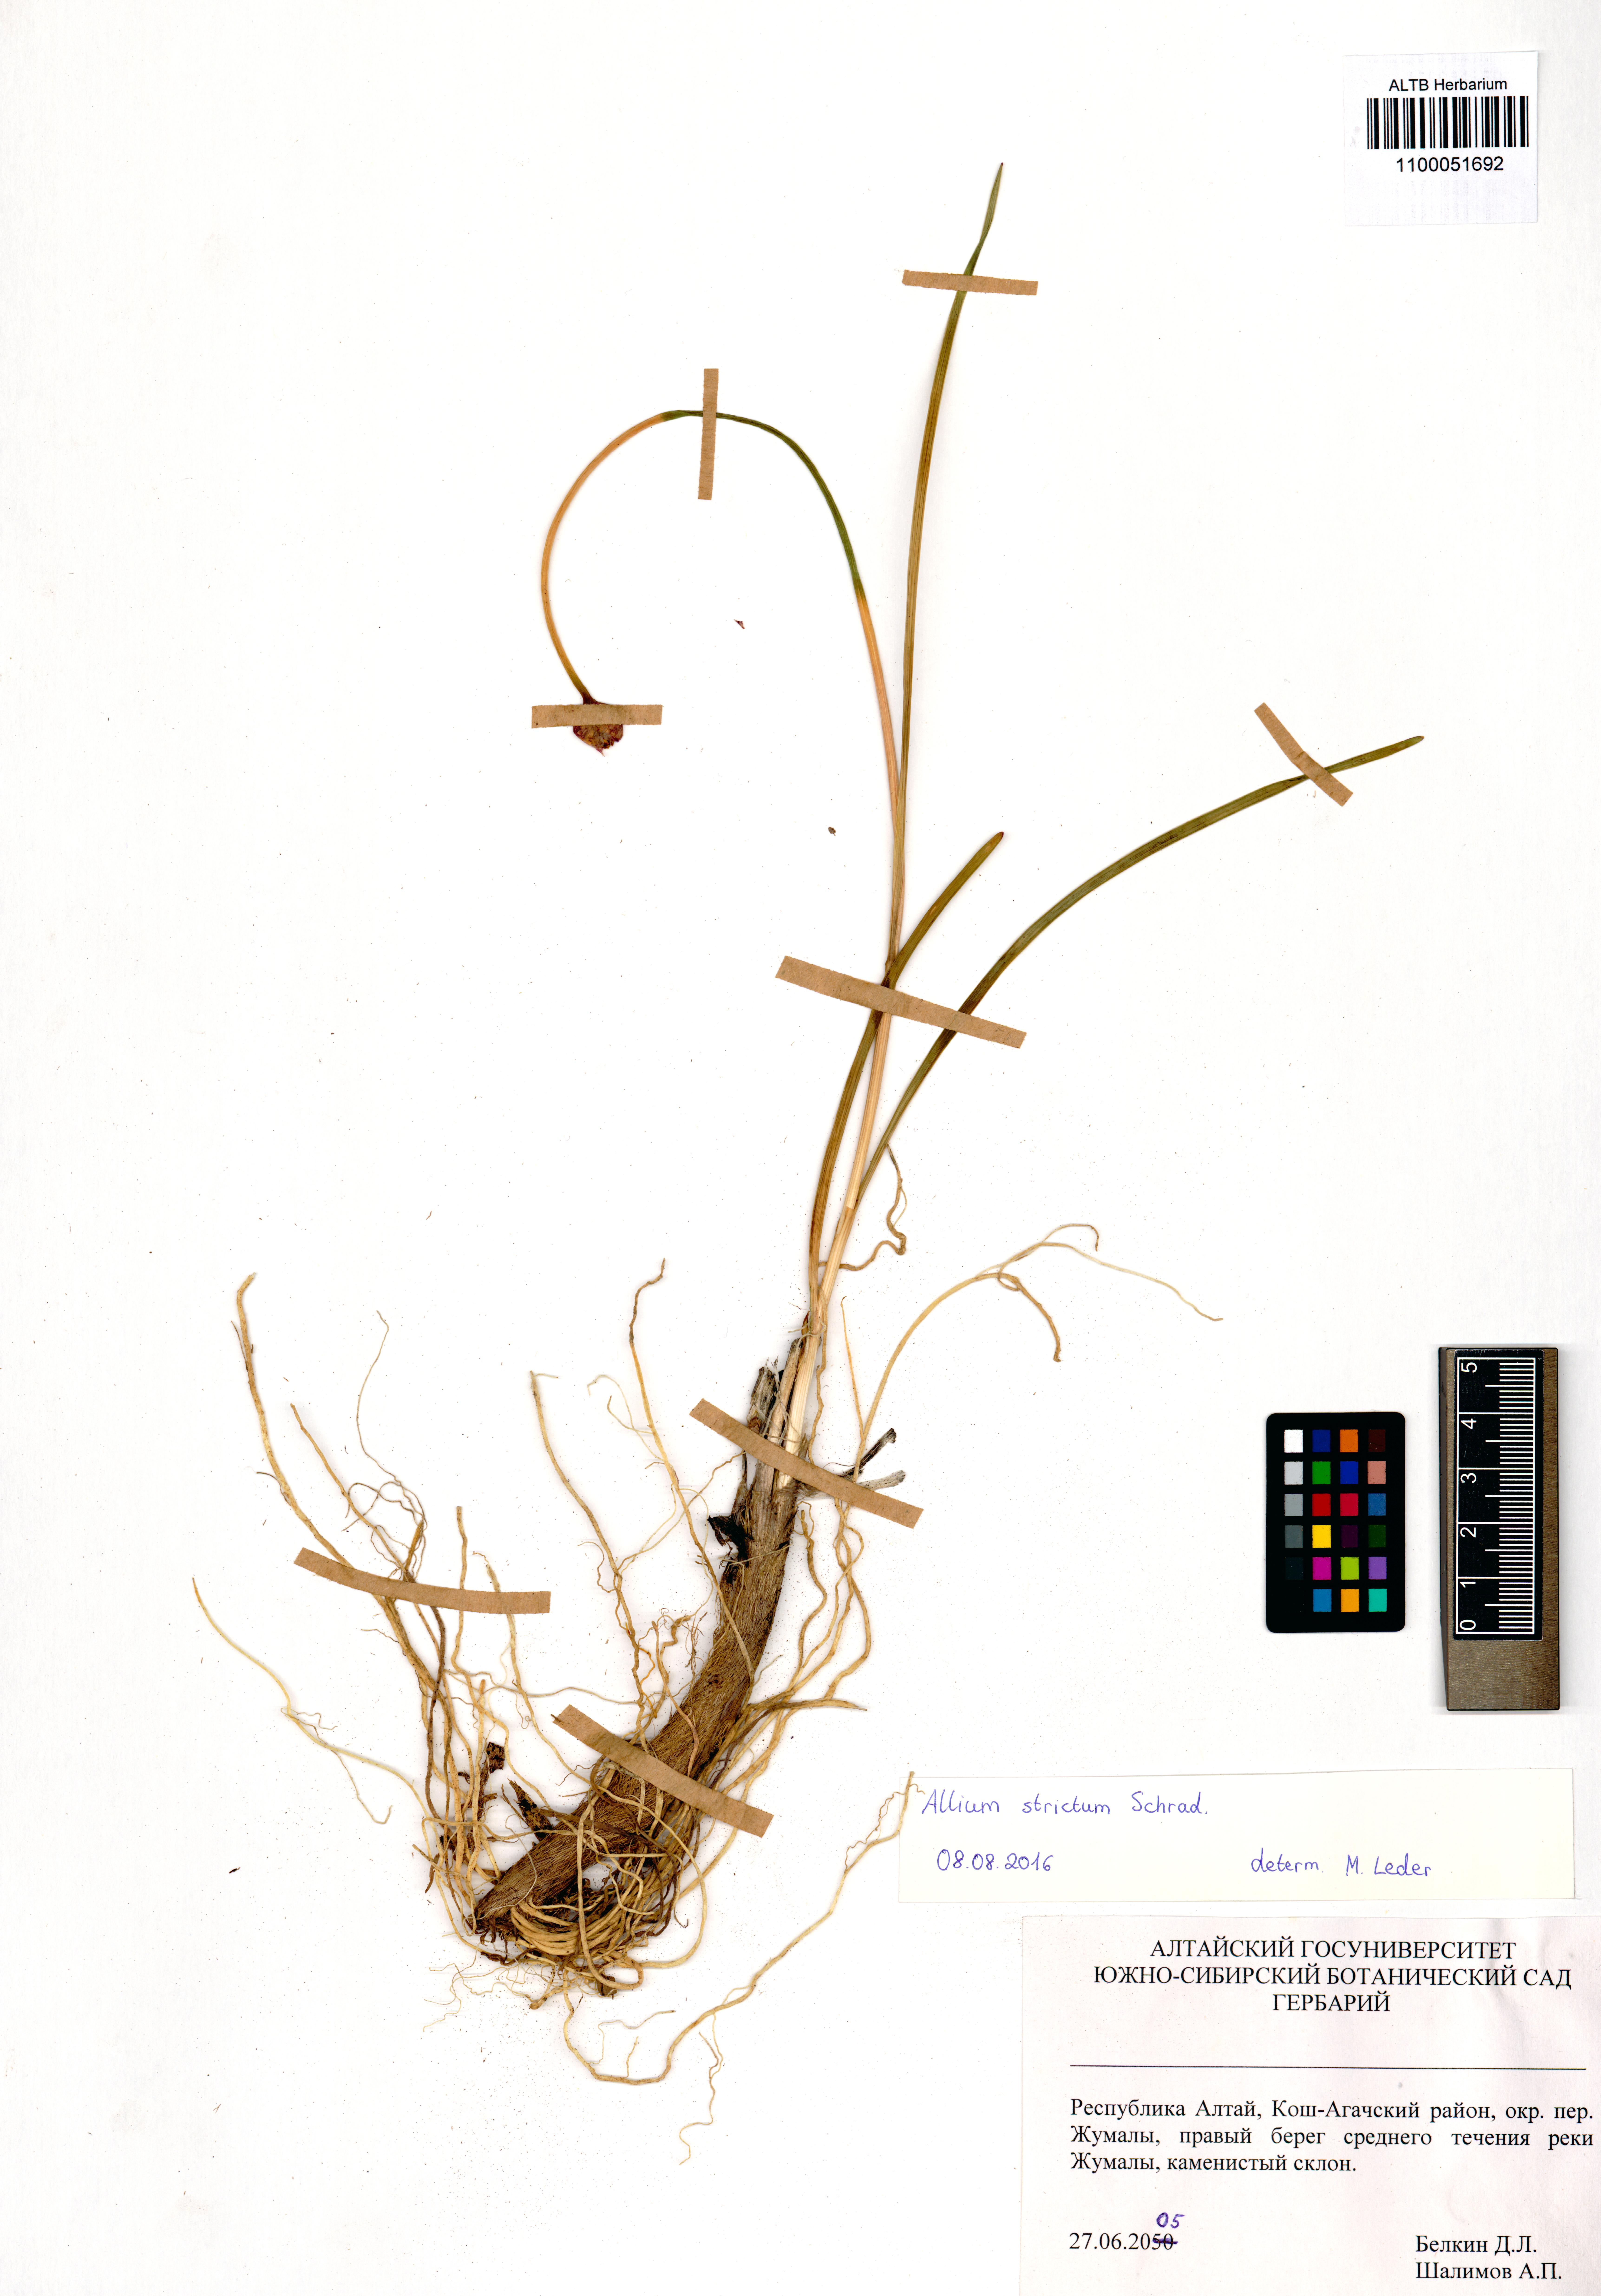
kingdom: Plantae
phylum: Tracheophyta
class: Liliopsida
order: Asparagales
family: Amaryllidaceae
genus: Allium
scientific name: Allium strictum
